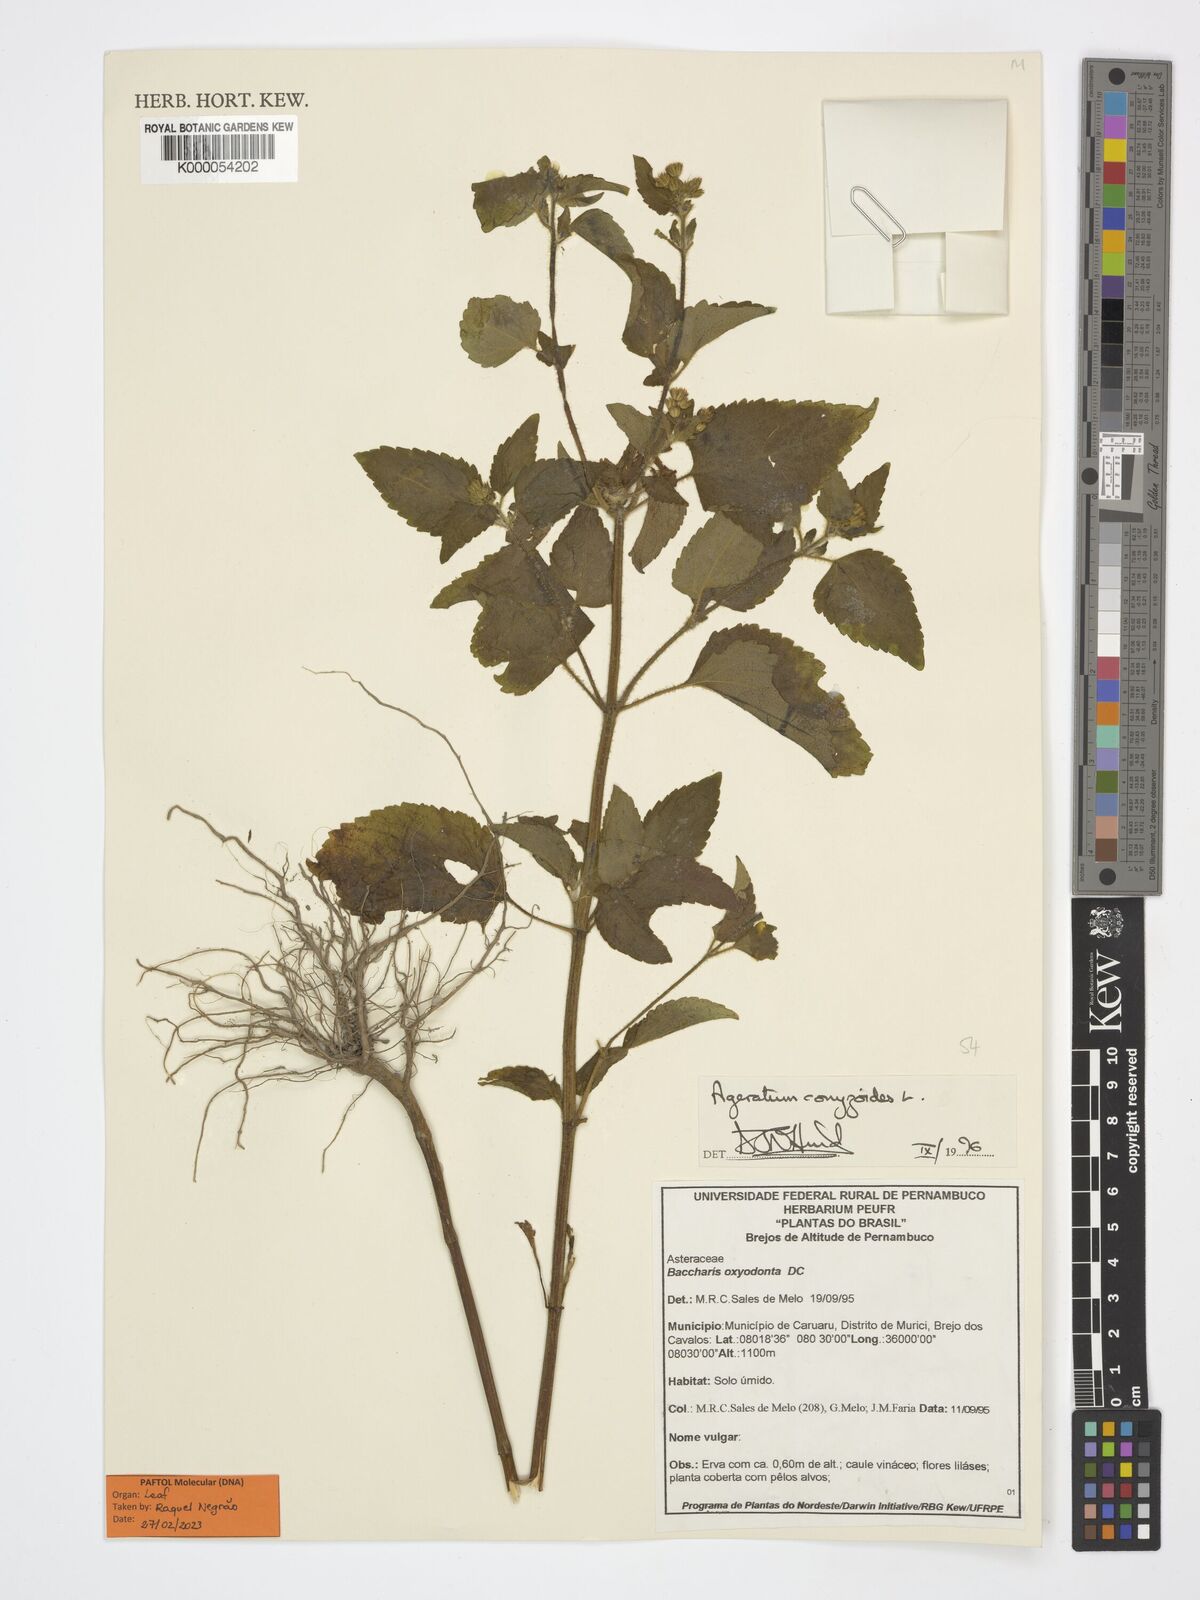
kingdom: Plantae
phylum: Tracheophyta
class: Magnoliopsida
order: Asterales
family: Asteraceae
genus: Ageratum
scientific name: Ageratum conyzoides
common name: Tropical whiteweed
